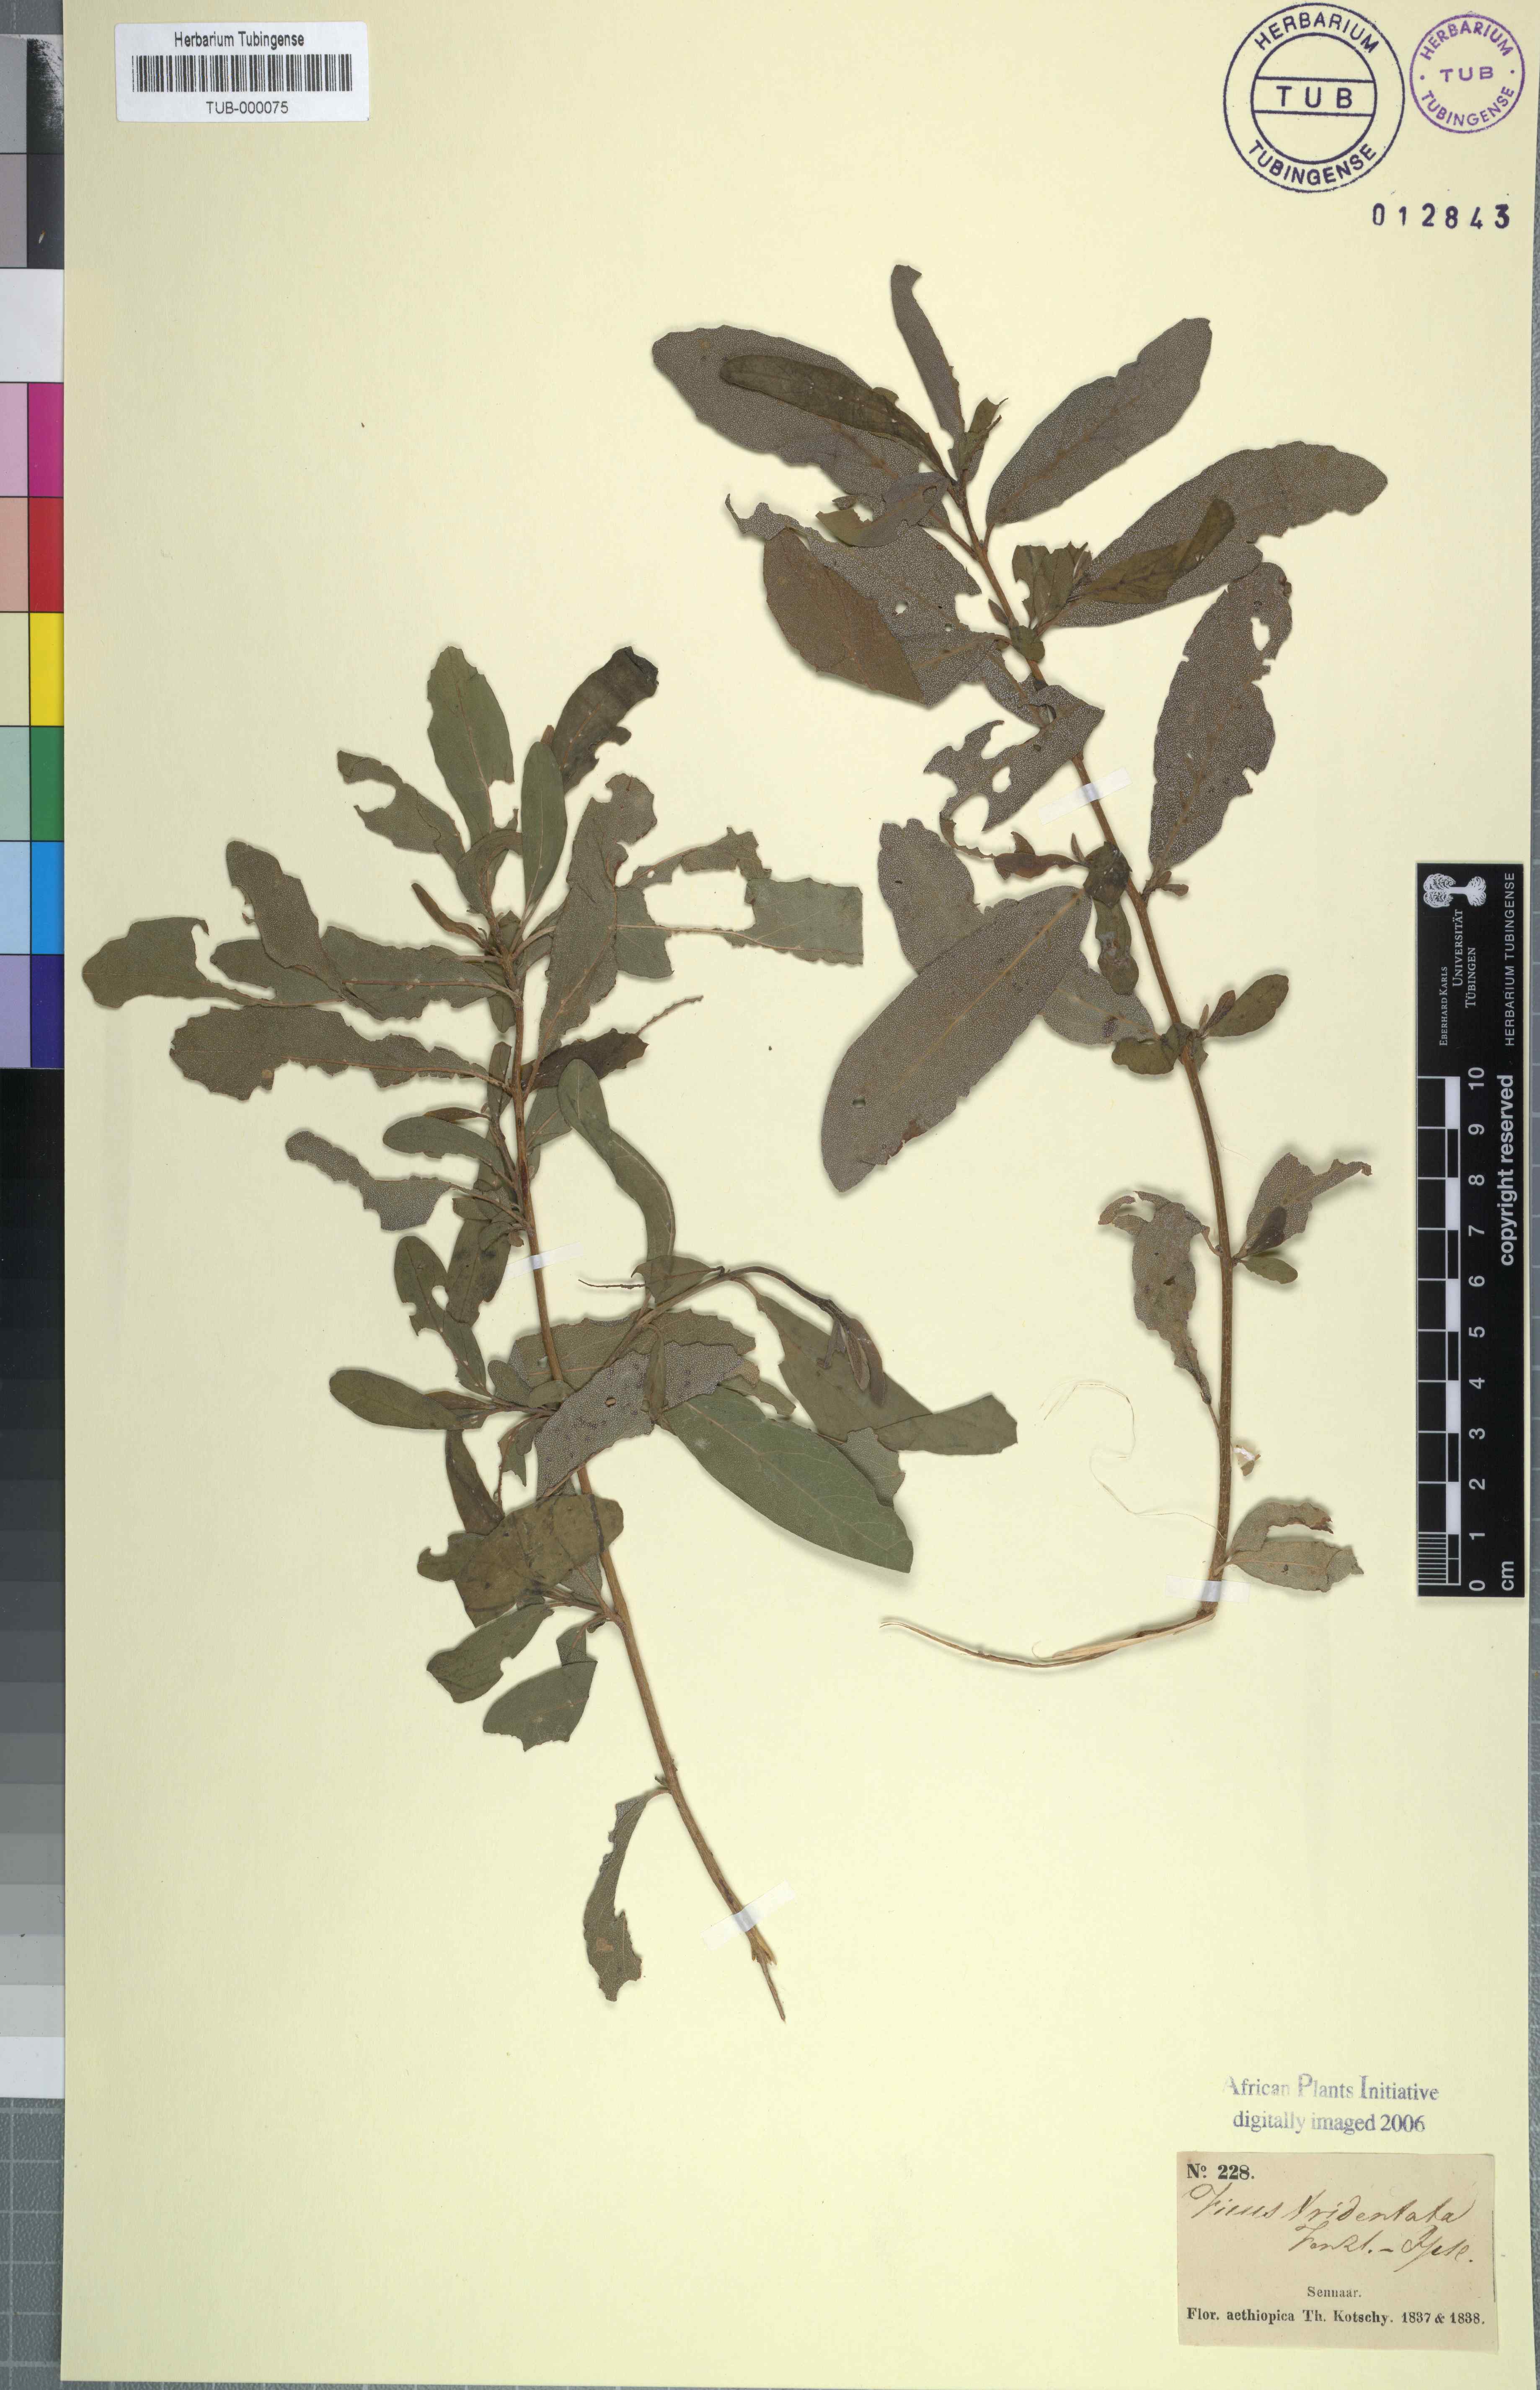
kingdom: Plantae
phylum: Tracheophyta
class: Magnoliopsida
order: Rosales
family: Moraceae
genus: Ficus
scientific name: Ficus capreifolia
